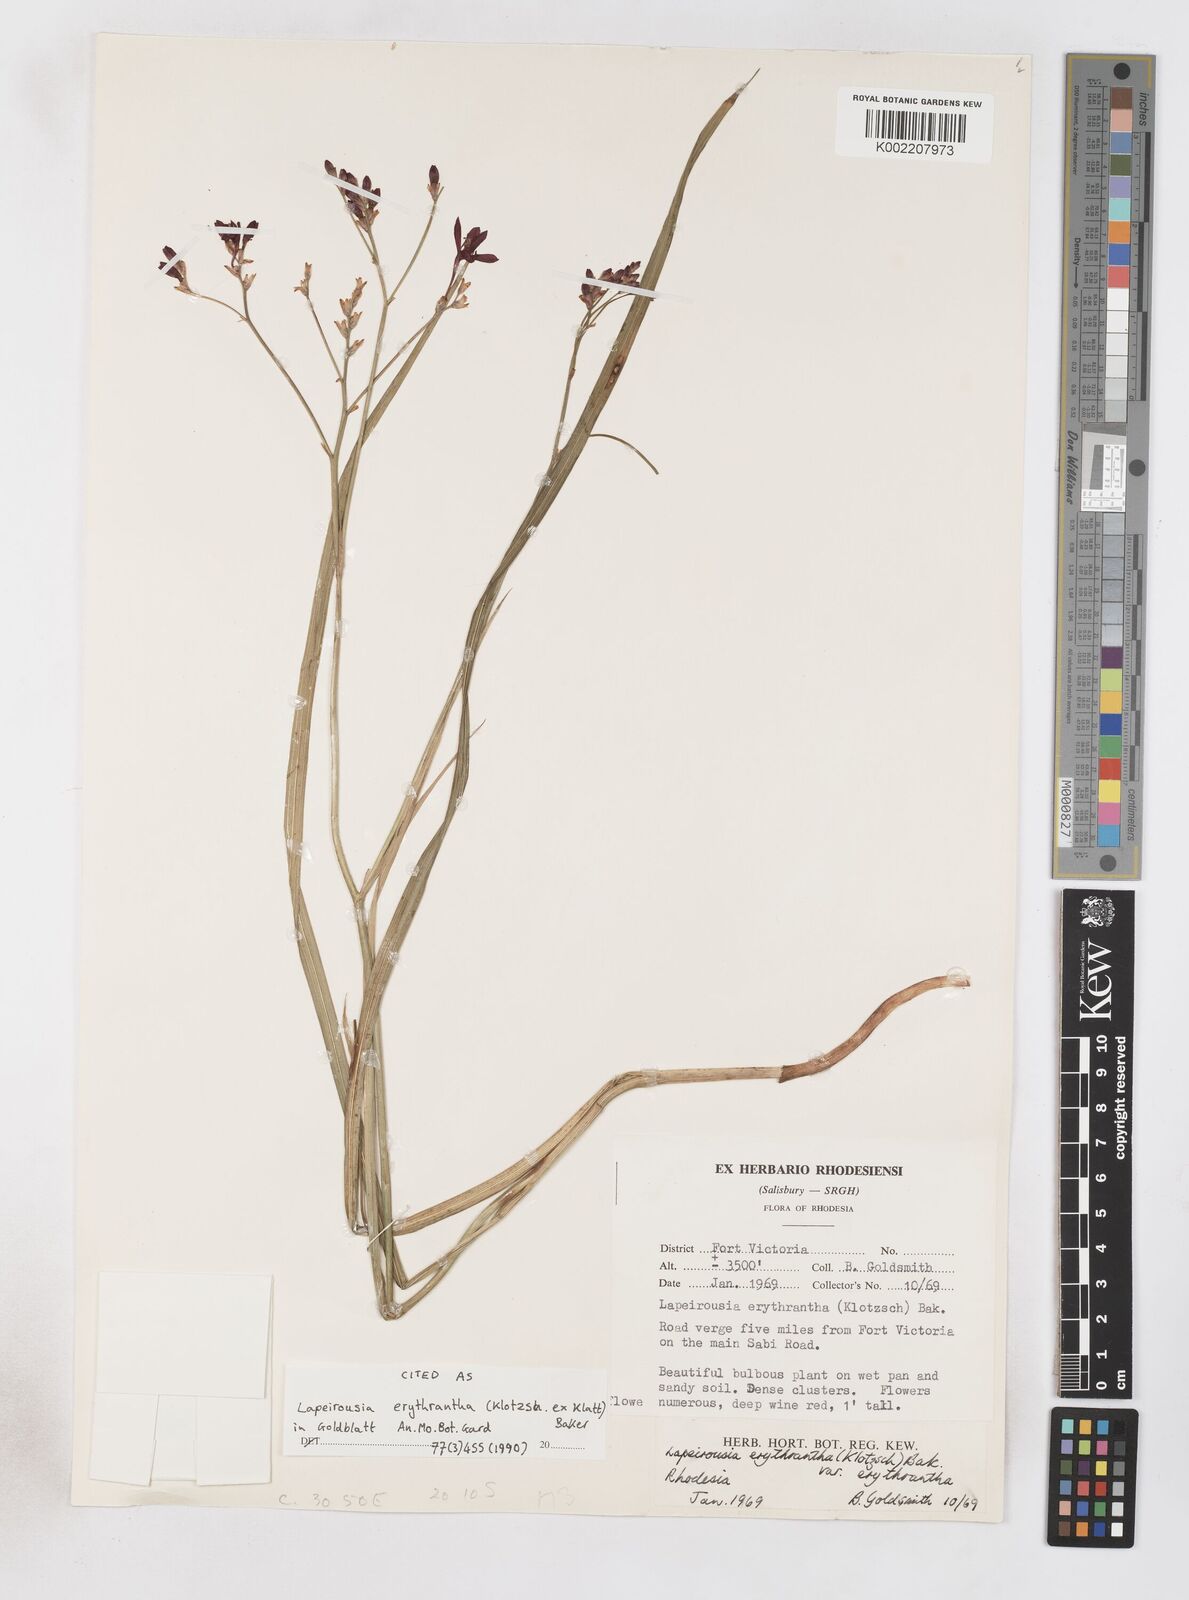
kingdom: Plantae
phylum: Tracheophyta
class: Liliopsida
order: Asparagales
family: Iridaceae
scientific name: Iridaceae
